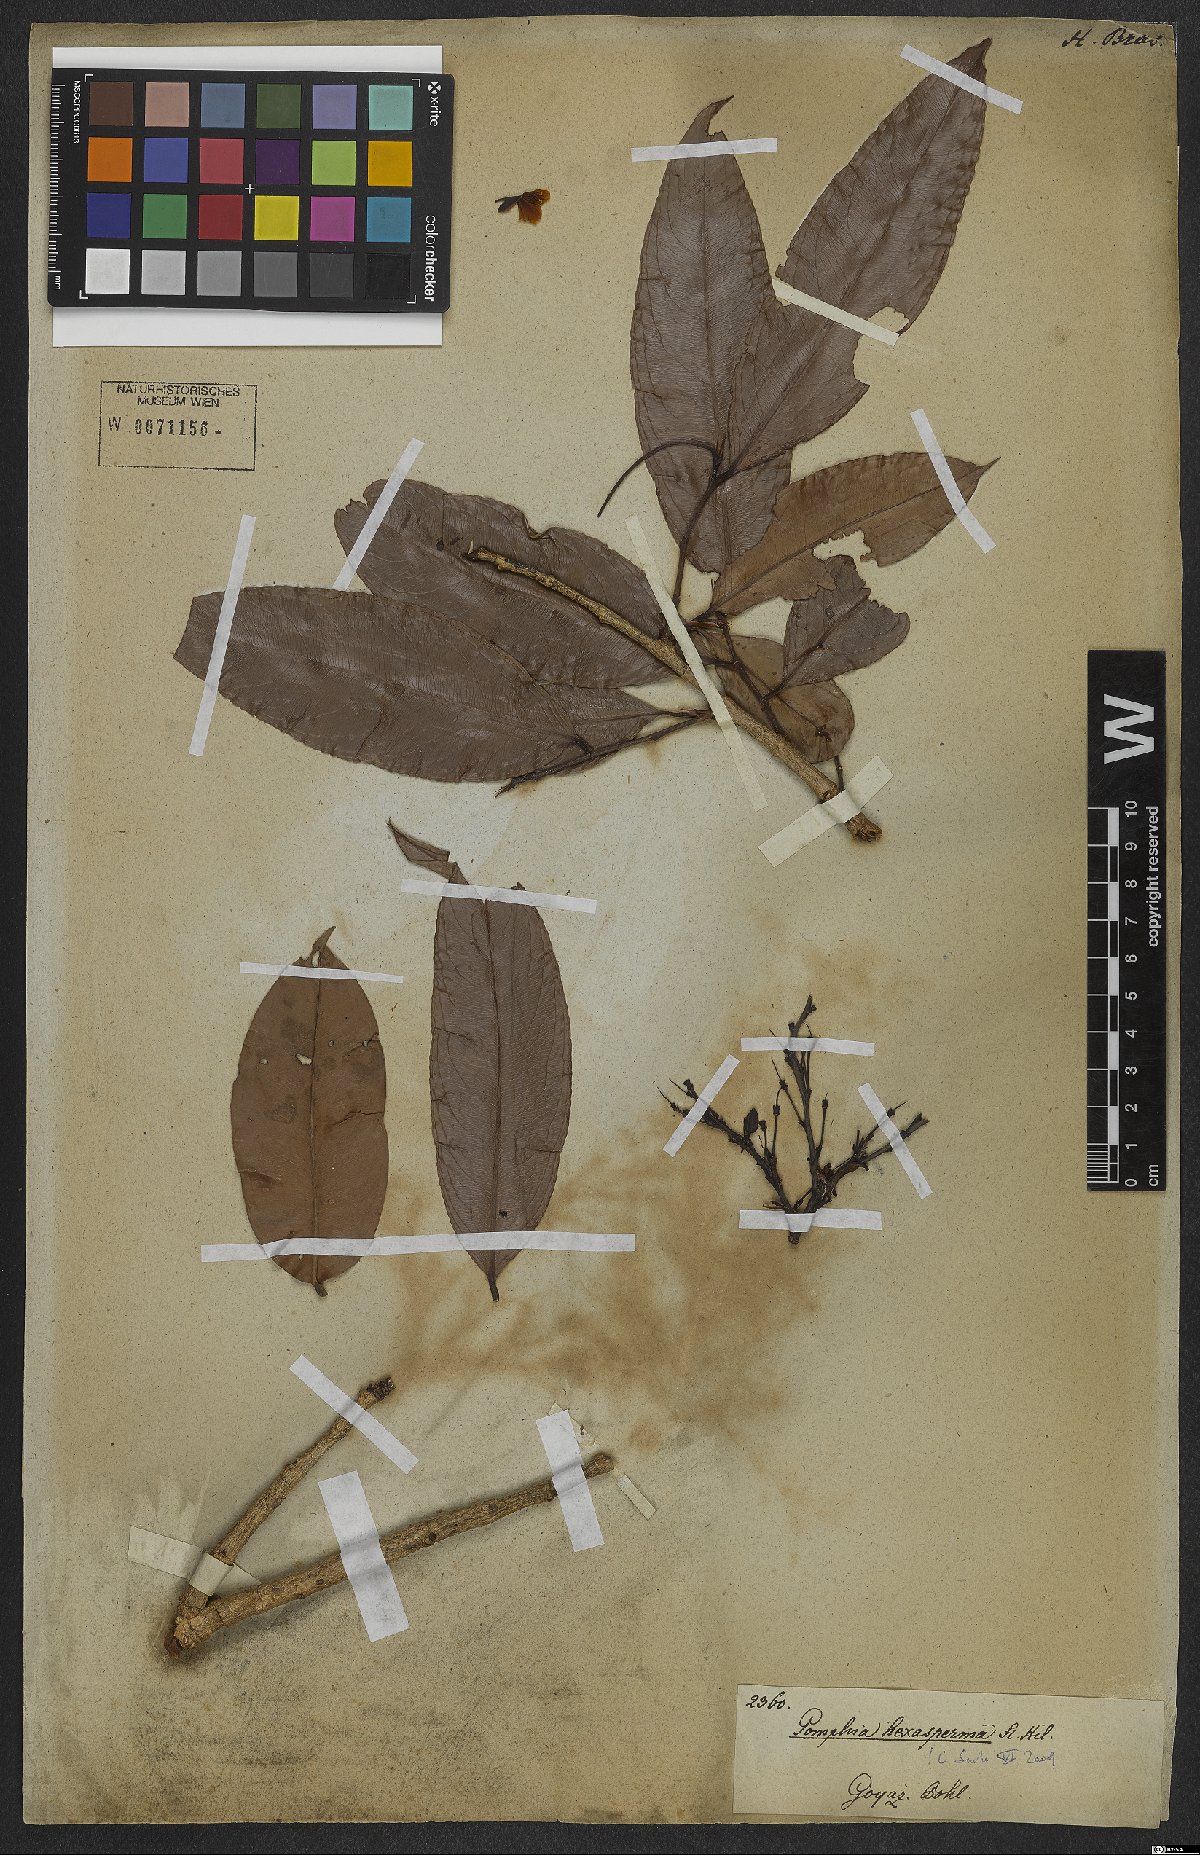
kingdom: Plantae
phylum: Tracheophyta
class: Magnoliopsida
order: Malpighiales
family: Ochnaceae
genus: Ouratea
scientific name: Ouratea hexasperma
